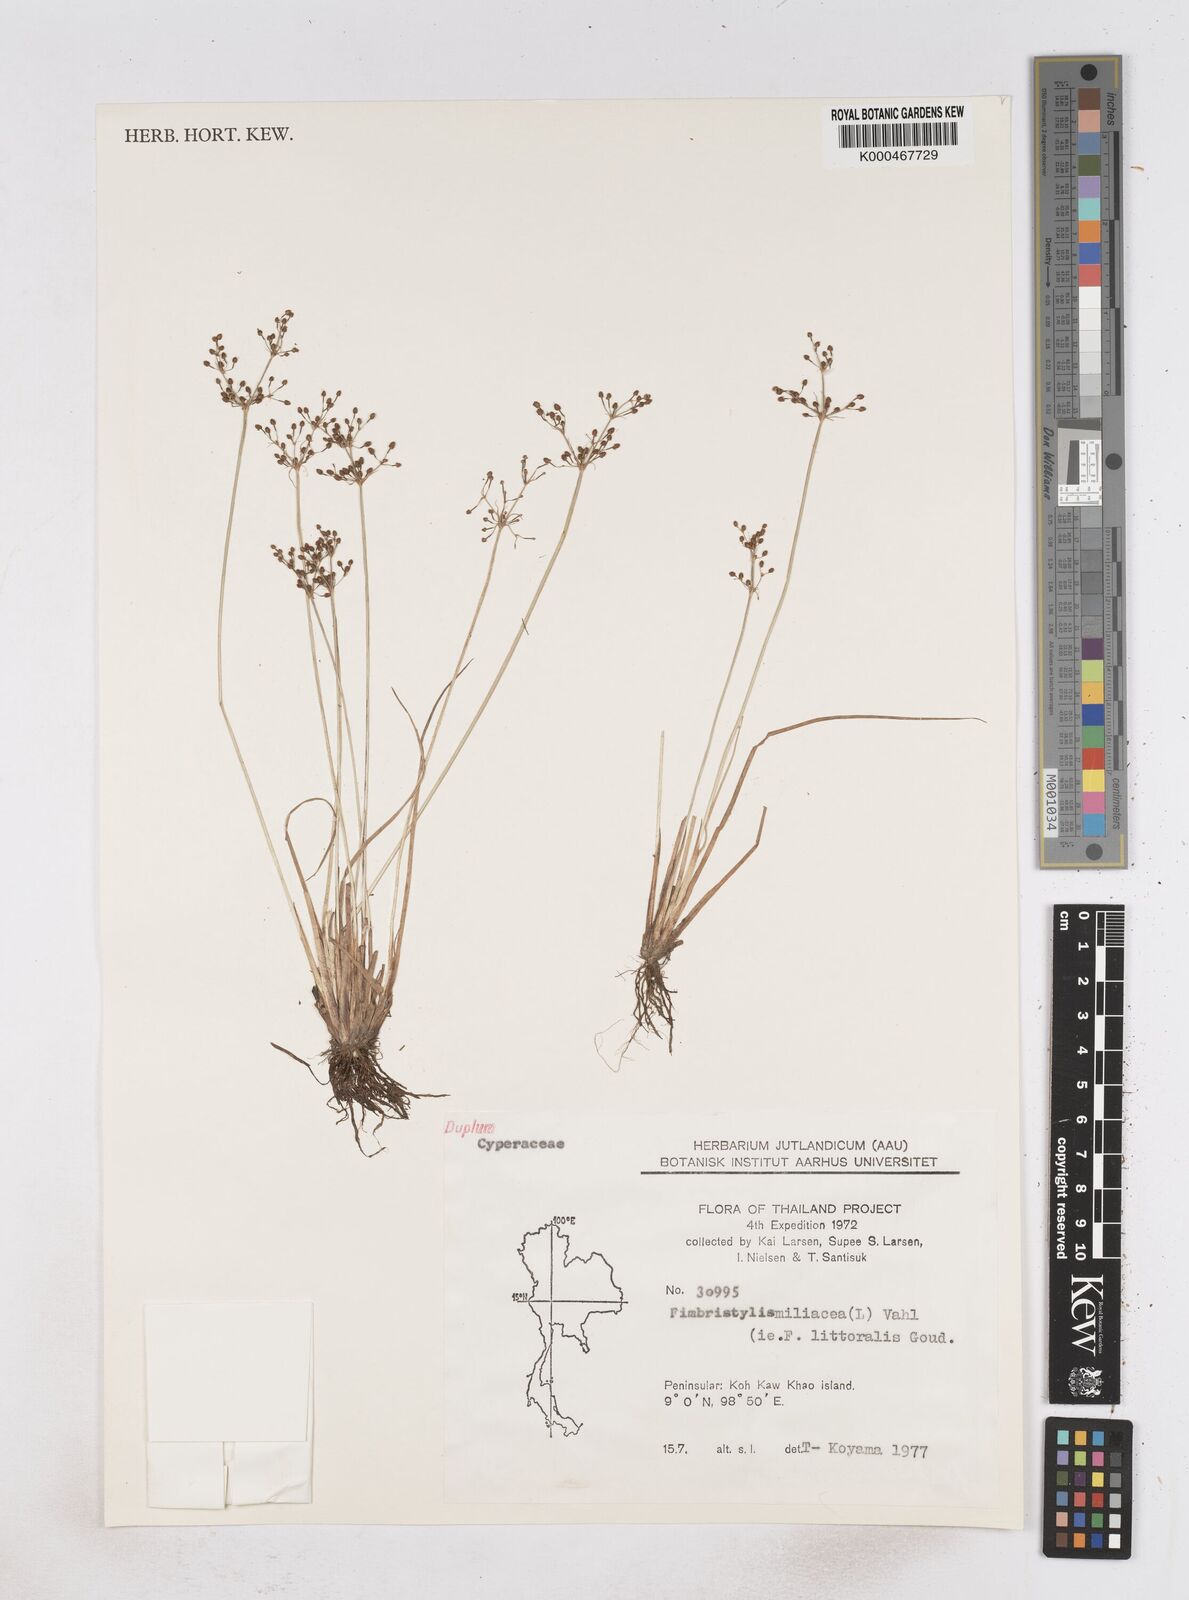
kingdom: Plantae
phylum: Tracheophyta
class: Liliopsida
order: Poales
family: Cyperaceae
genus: Fimbristylis
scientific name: Fimbristylis quinquangularis
